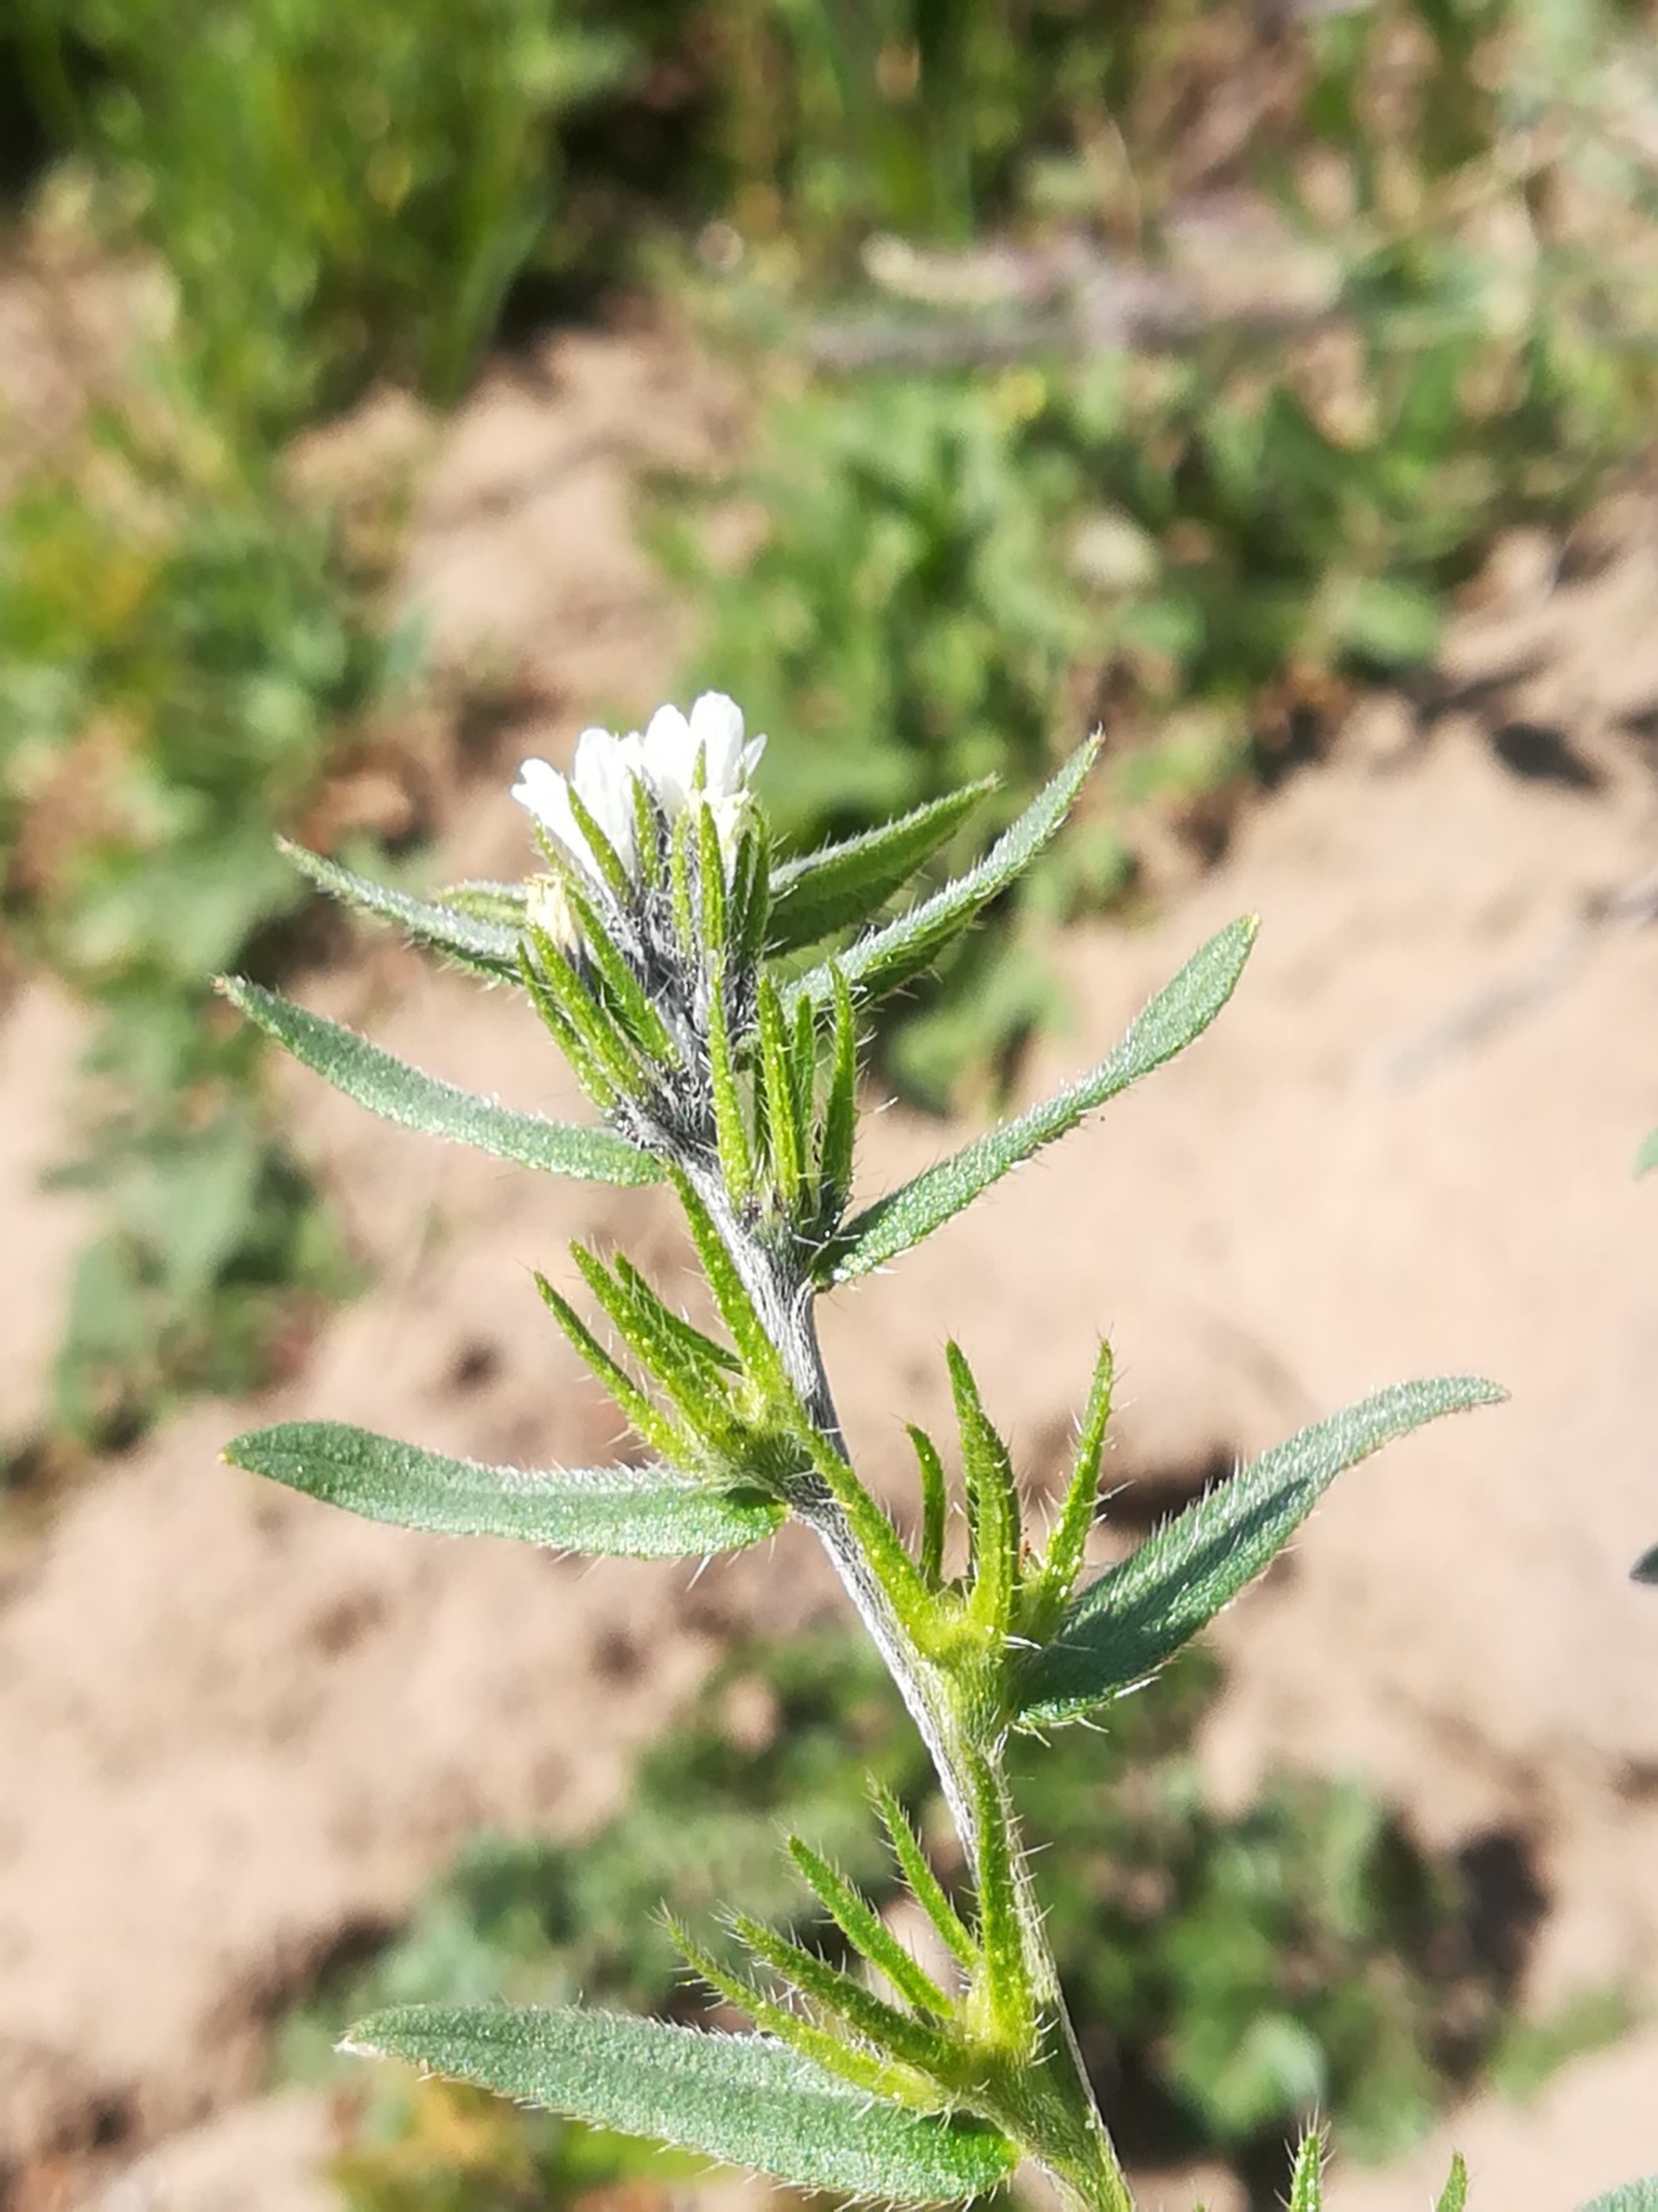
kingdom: Plantae
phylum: Tracheophyta
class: Magnoliopsida
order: Boraginales
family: Boraginaceae
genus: Buglossoides
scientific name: Buglossoides arvensis
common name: Rynket stenfrø
